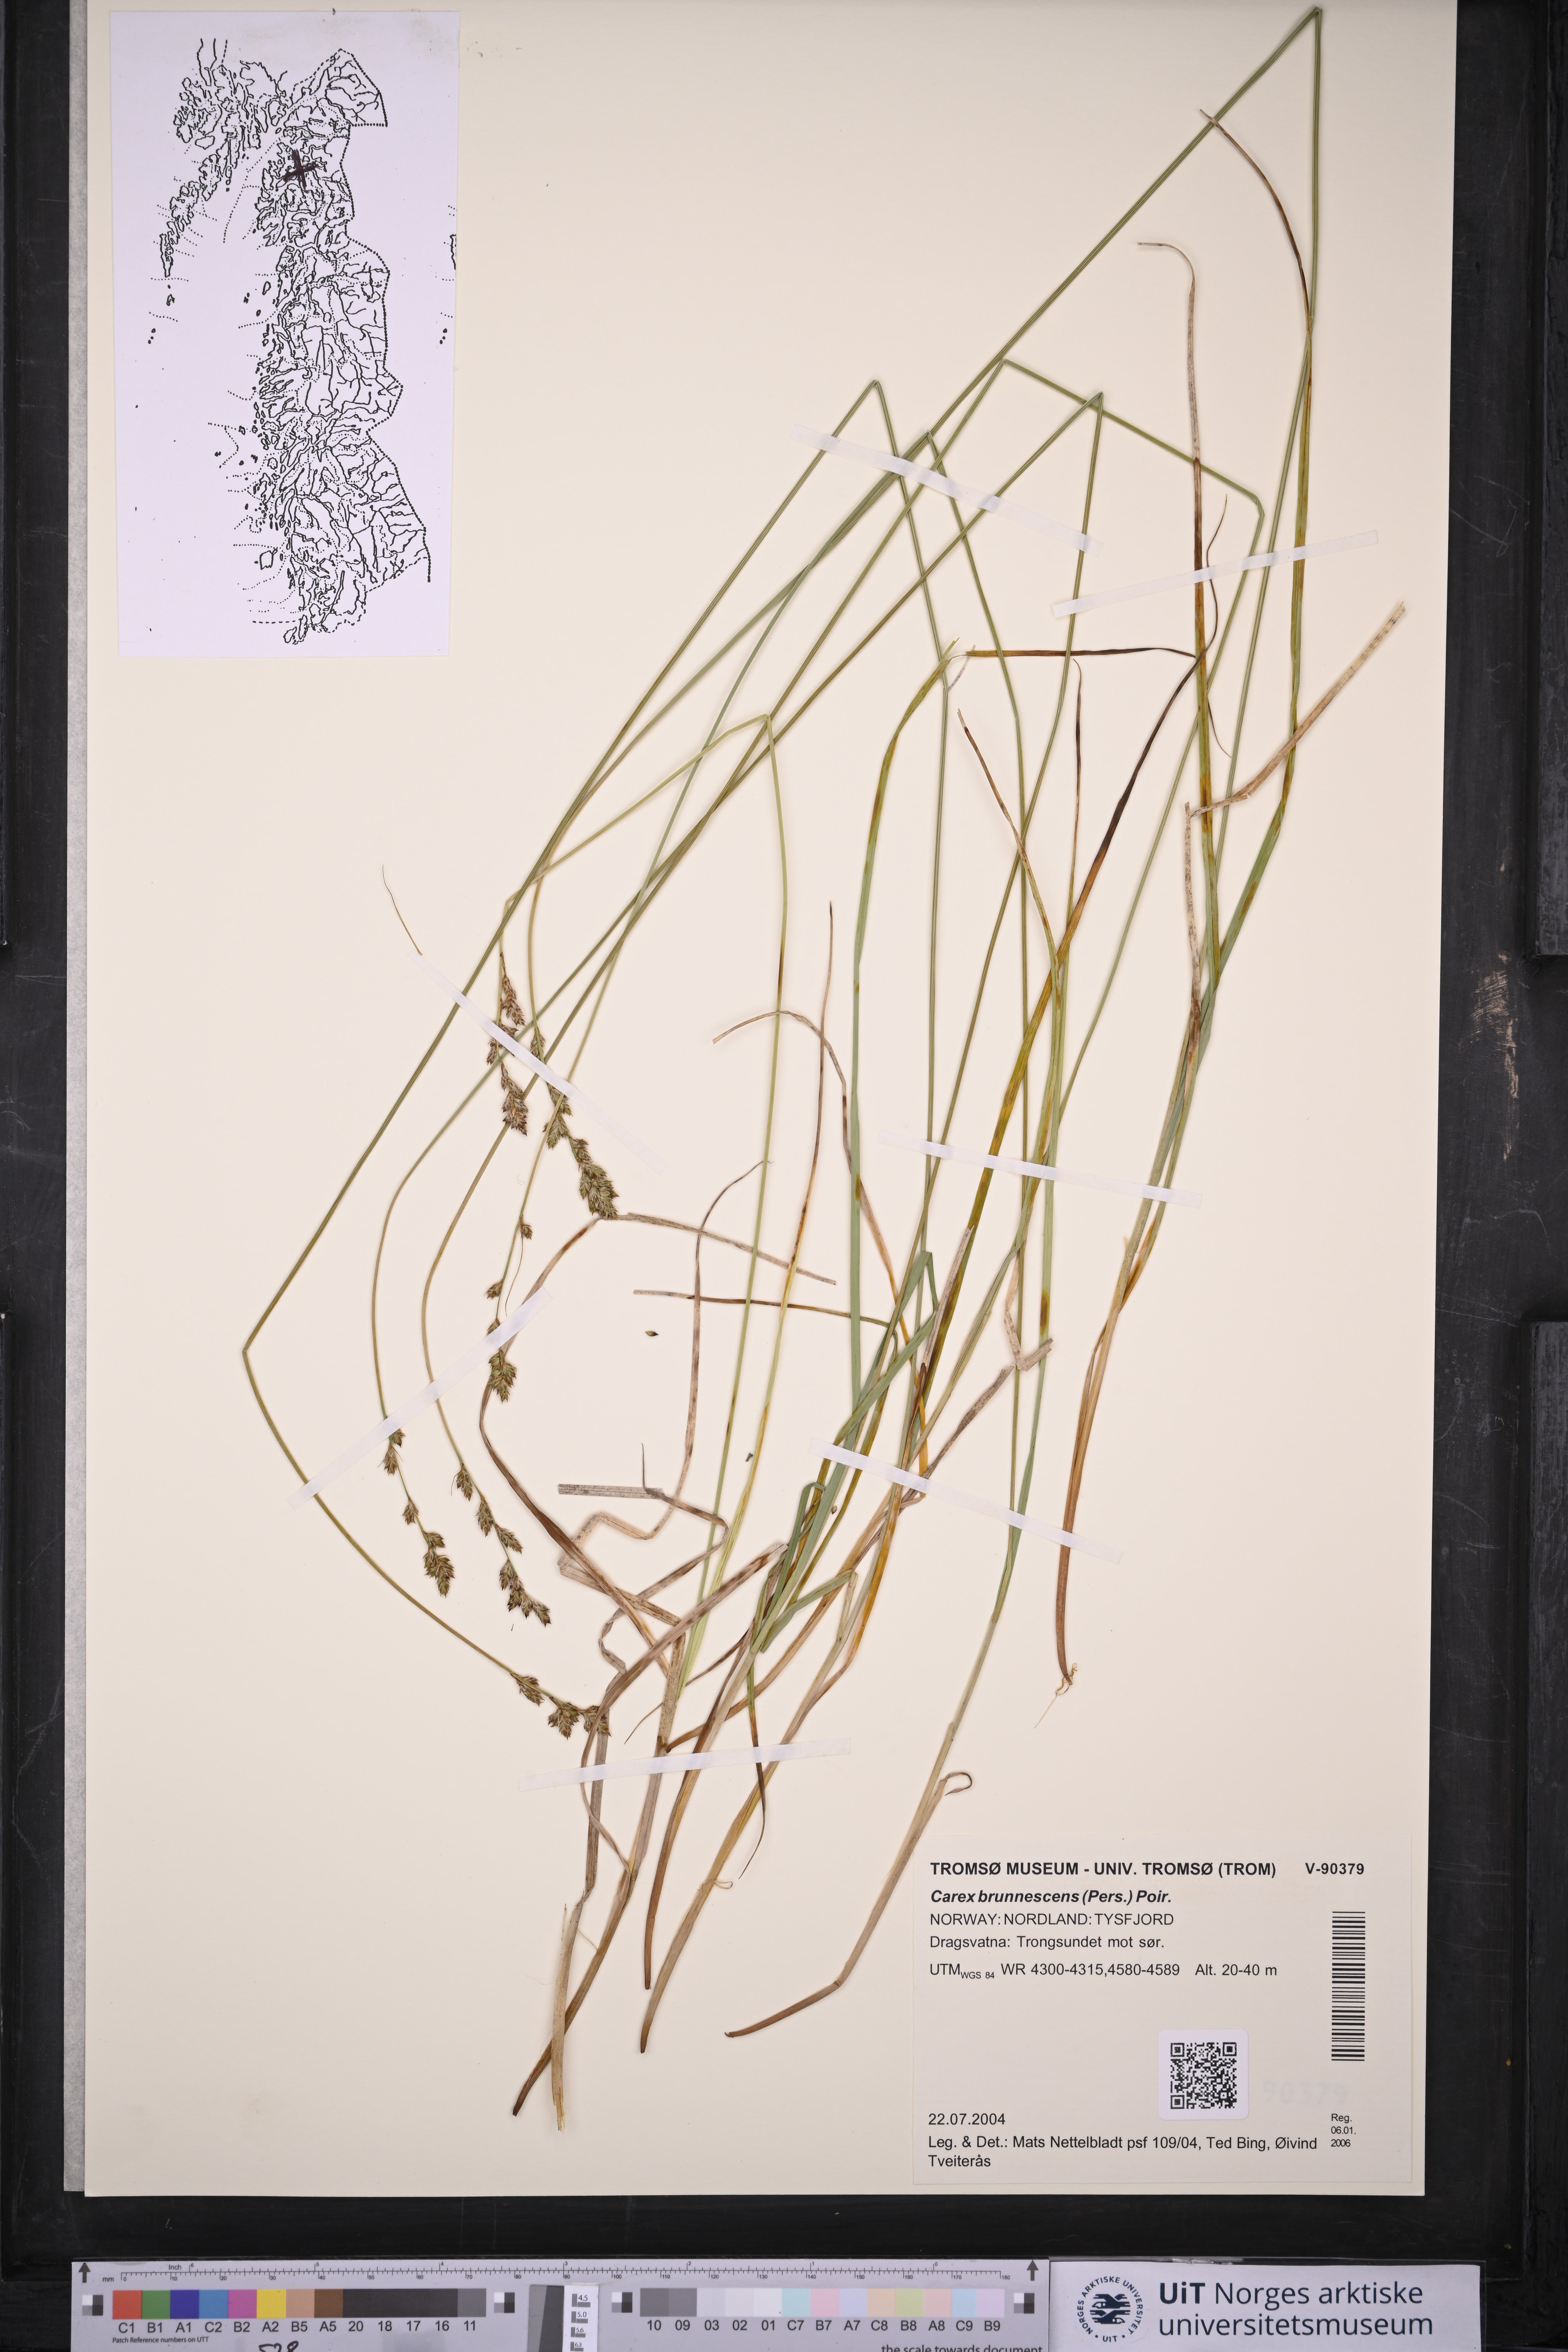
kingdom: Plantae
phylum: Tracheophyta
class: Liliopsida
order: Poales
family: Cyperaceae
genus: Carex
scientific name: Carex brunnescens
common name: Brown sedge
